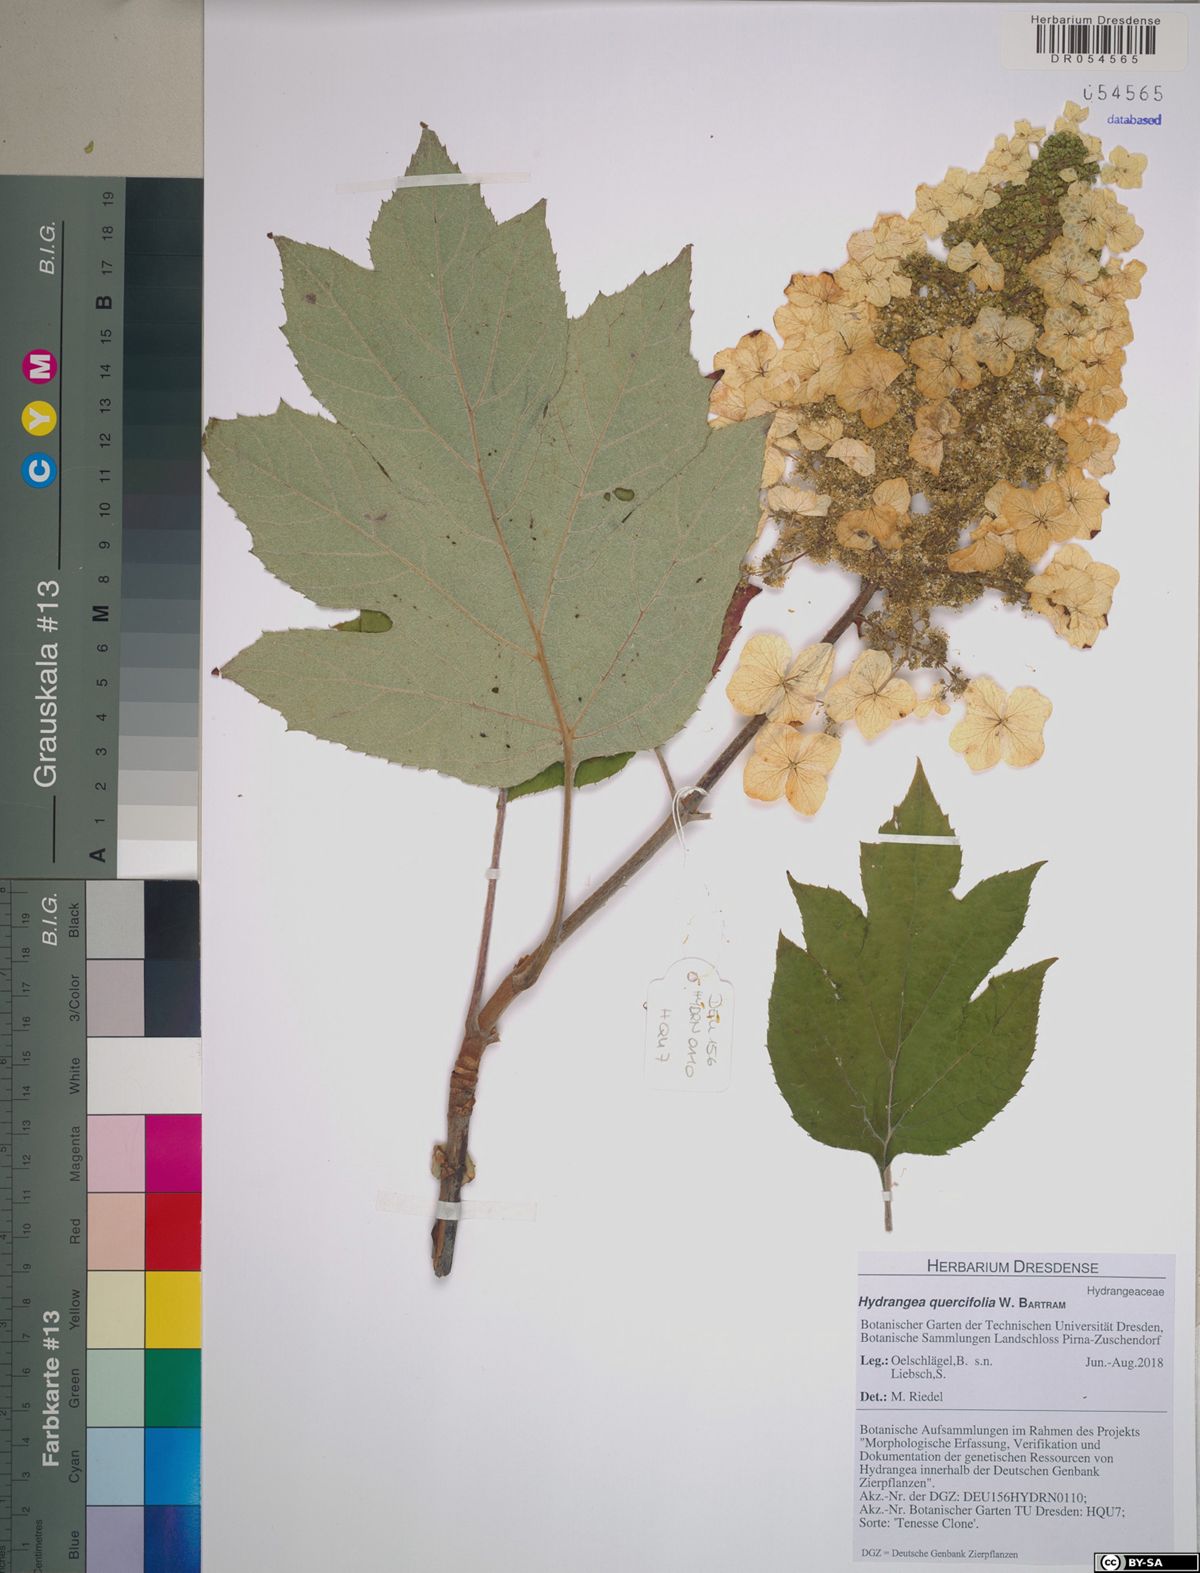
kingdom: Plantae
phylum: Tracheophyta
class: Magnoliopsida
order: Cornales
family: Hydrangeaceae
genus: Hydrangea
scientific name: Hydrangea quercifolia
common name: Oak-leaf hydrangea
